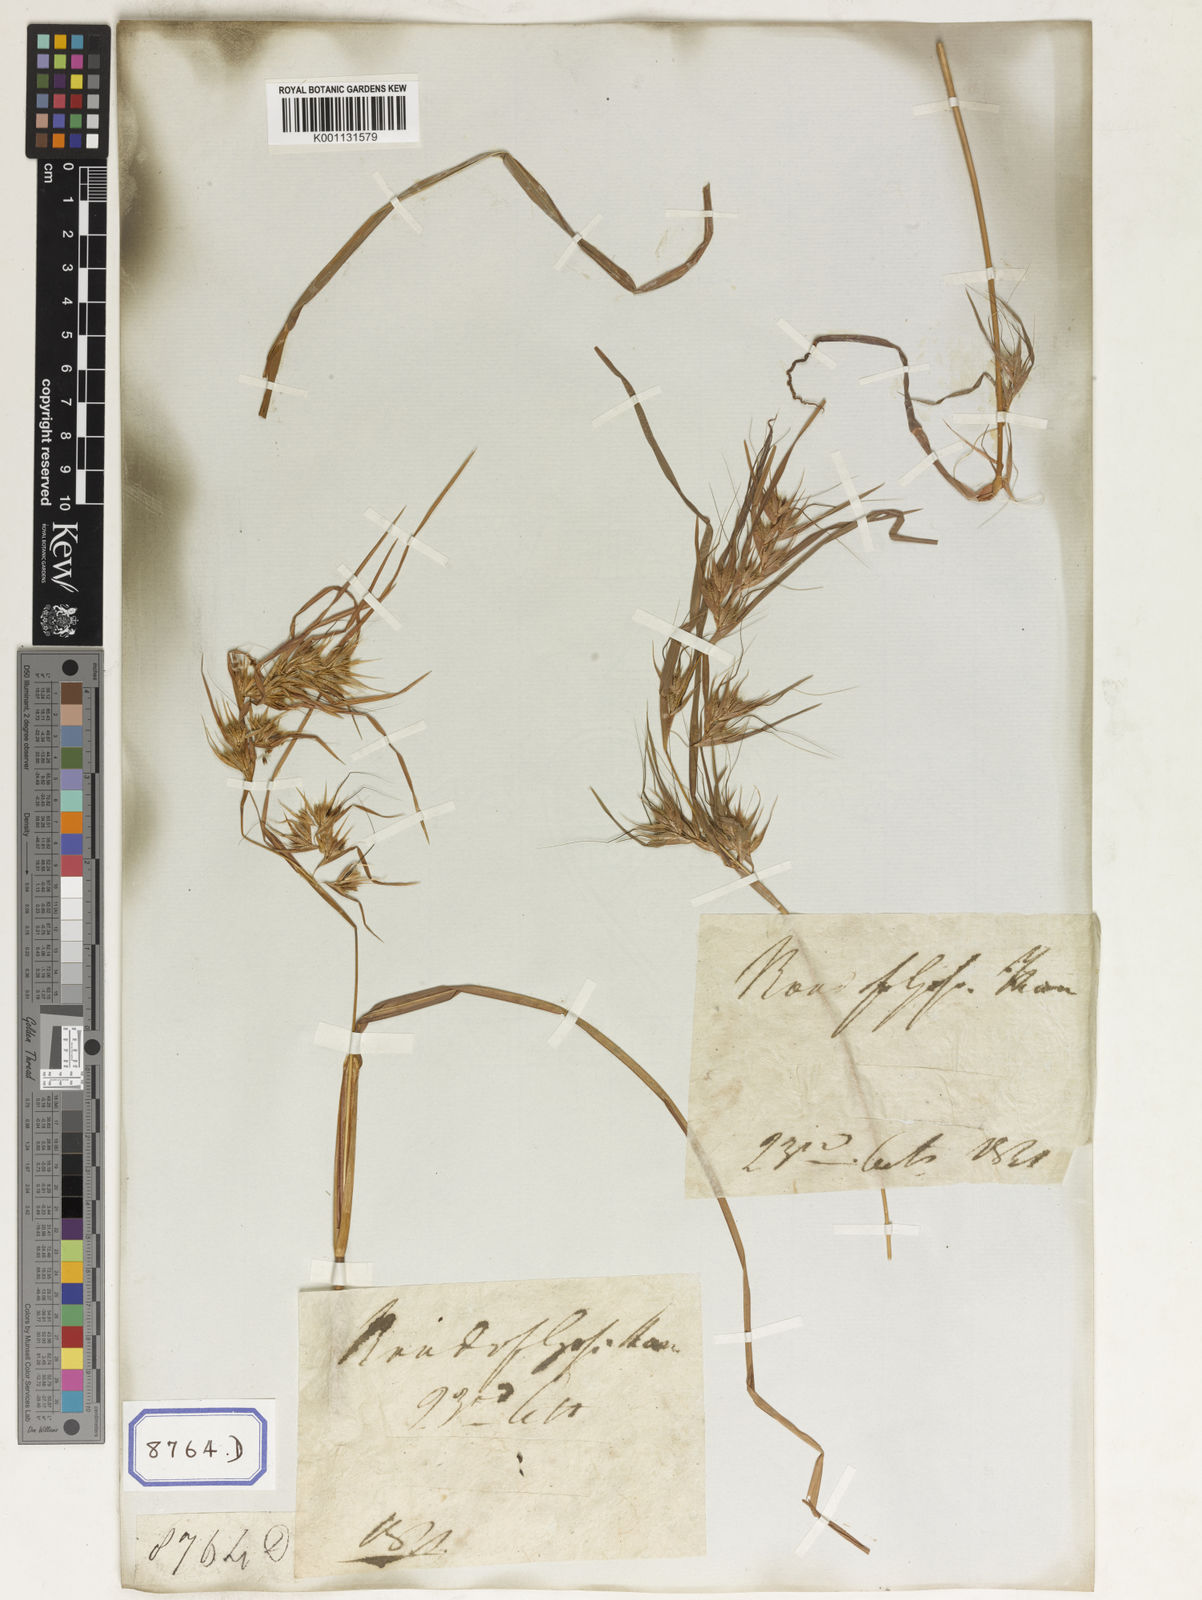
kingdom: Plantae
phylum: Tracheophyta
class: Liliopsida
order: Poales
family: Poaceae
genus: Themeda
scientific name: Themeda
